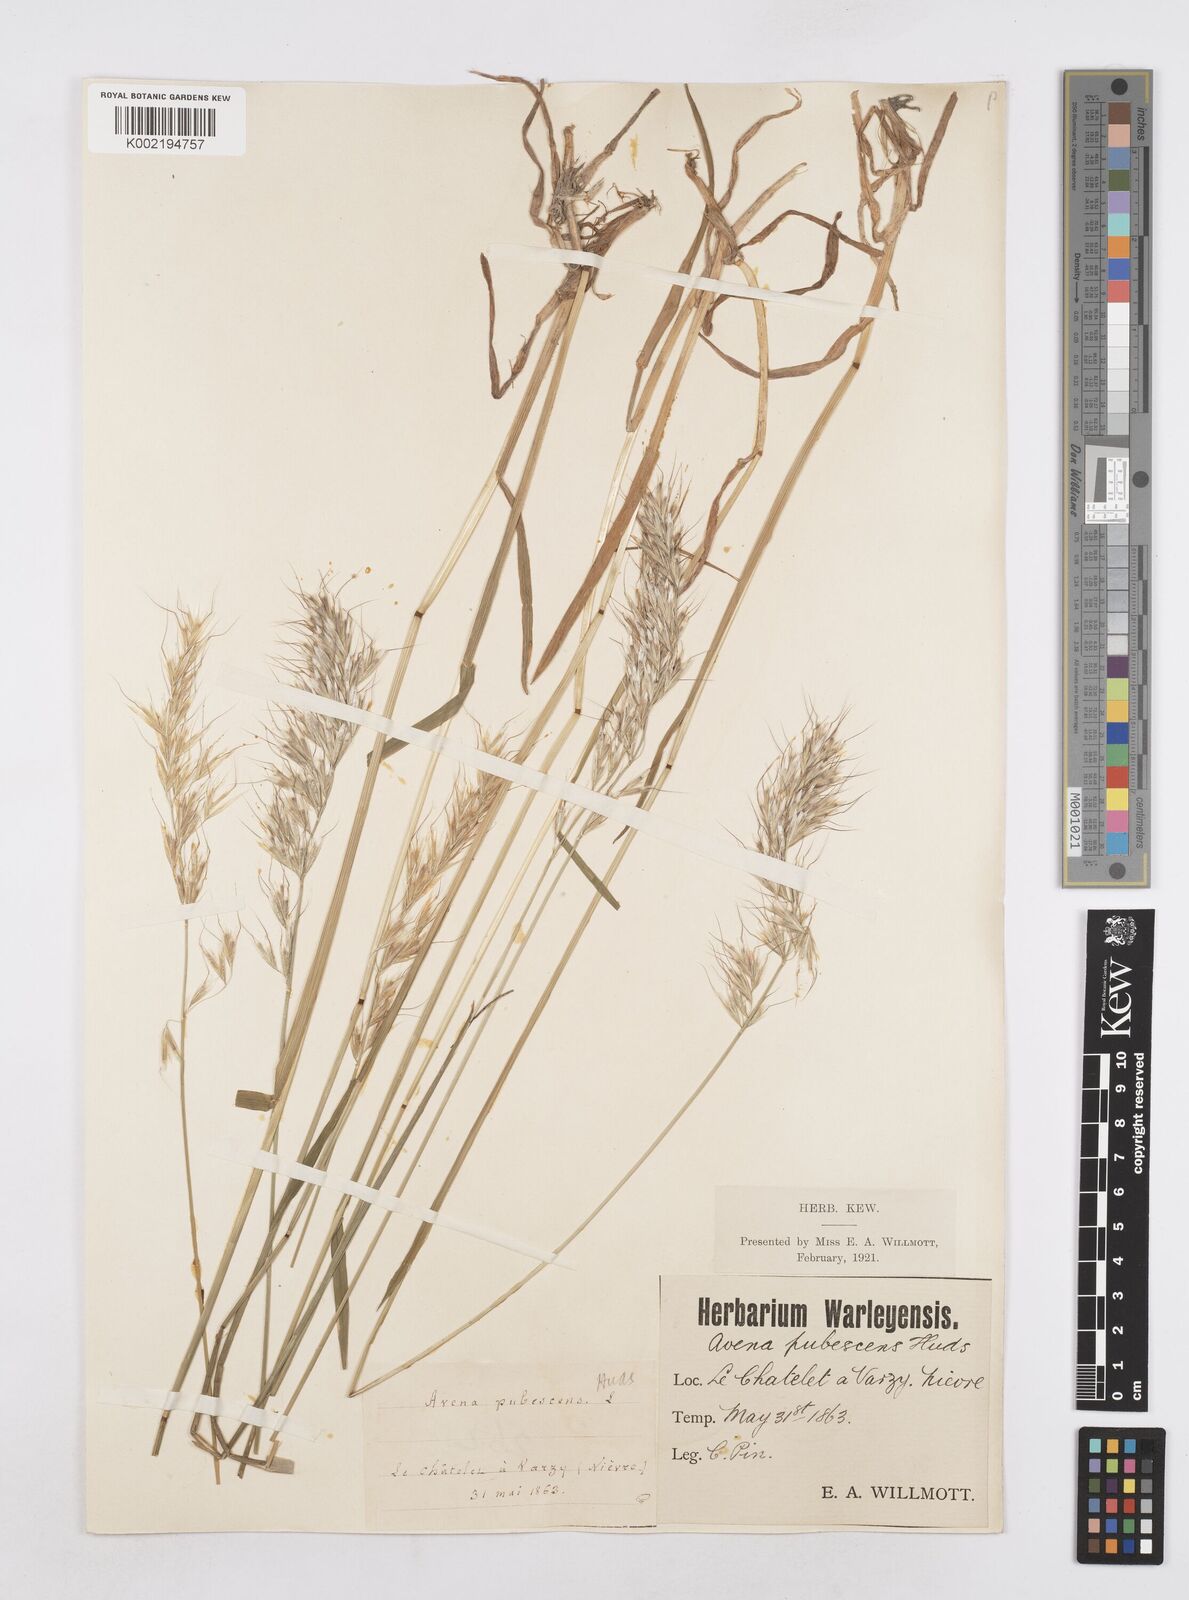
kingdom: Plantae
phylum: Tracheophyta
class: Liliopsida
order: Poales
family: Poaceae
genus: Avenula
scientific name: Avenula pubescens
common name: Downy alpine oatgrass
